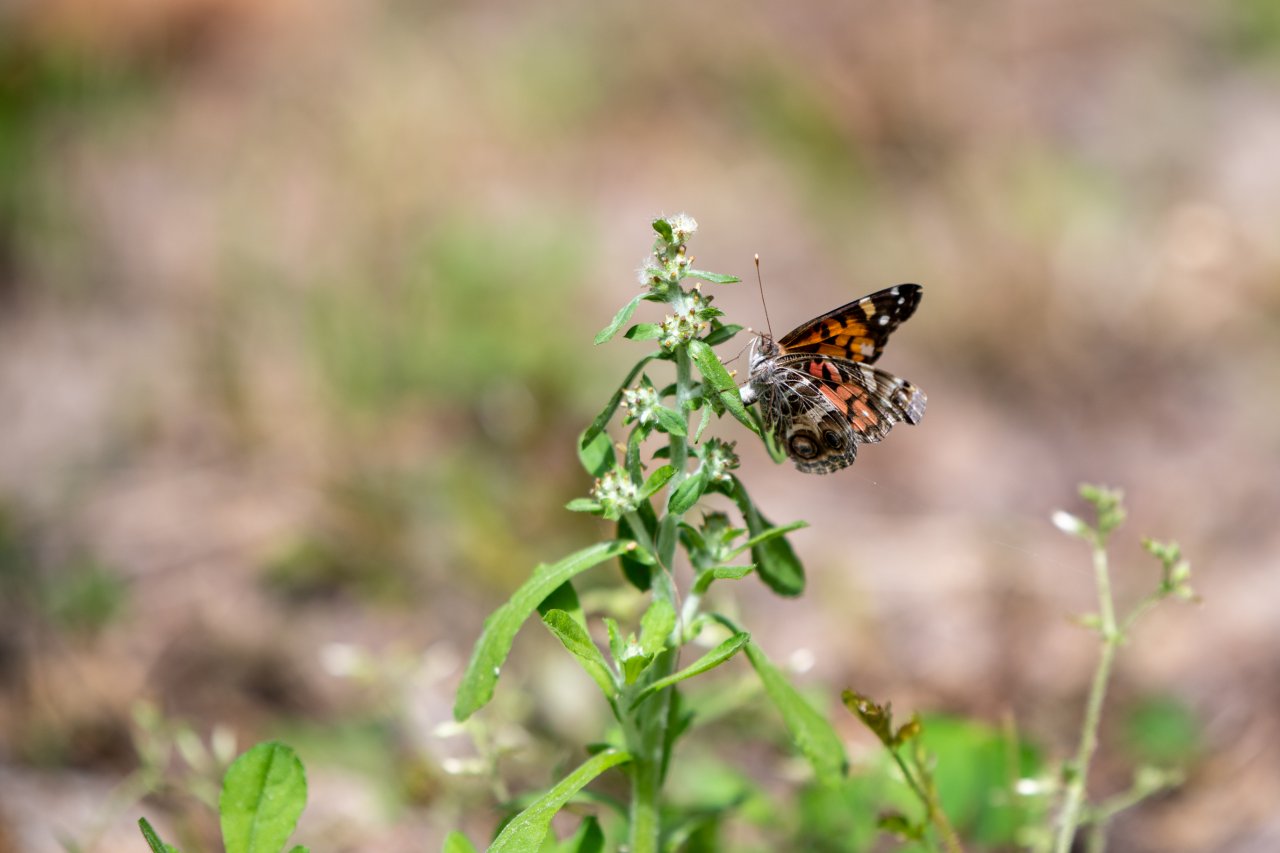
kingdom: Animalia
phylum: Arthropoda
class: Insecta
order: Lepidoptera
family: Nymphalidae
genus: Vanessa
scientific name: Vanessa virginiensis
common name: American Lady
